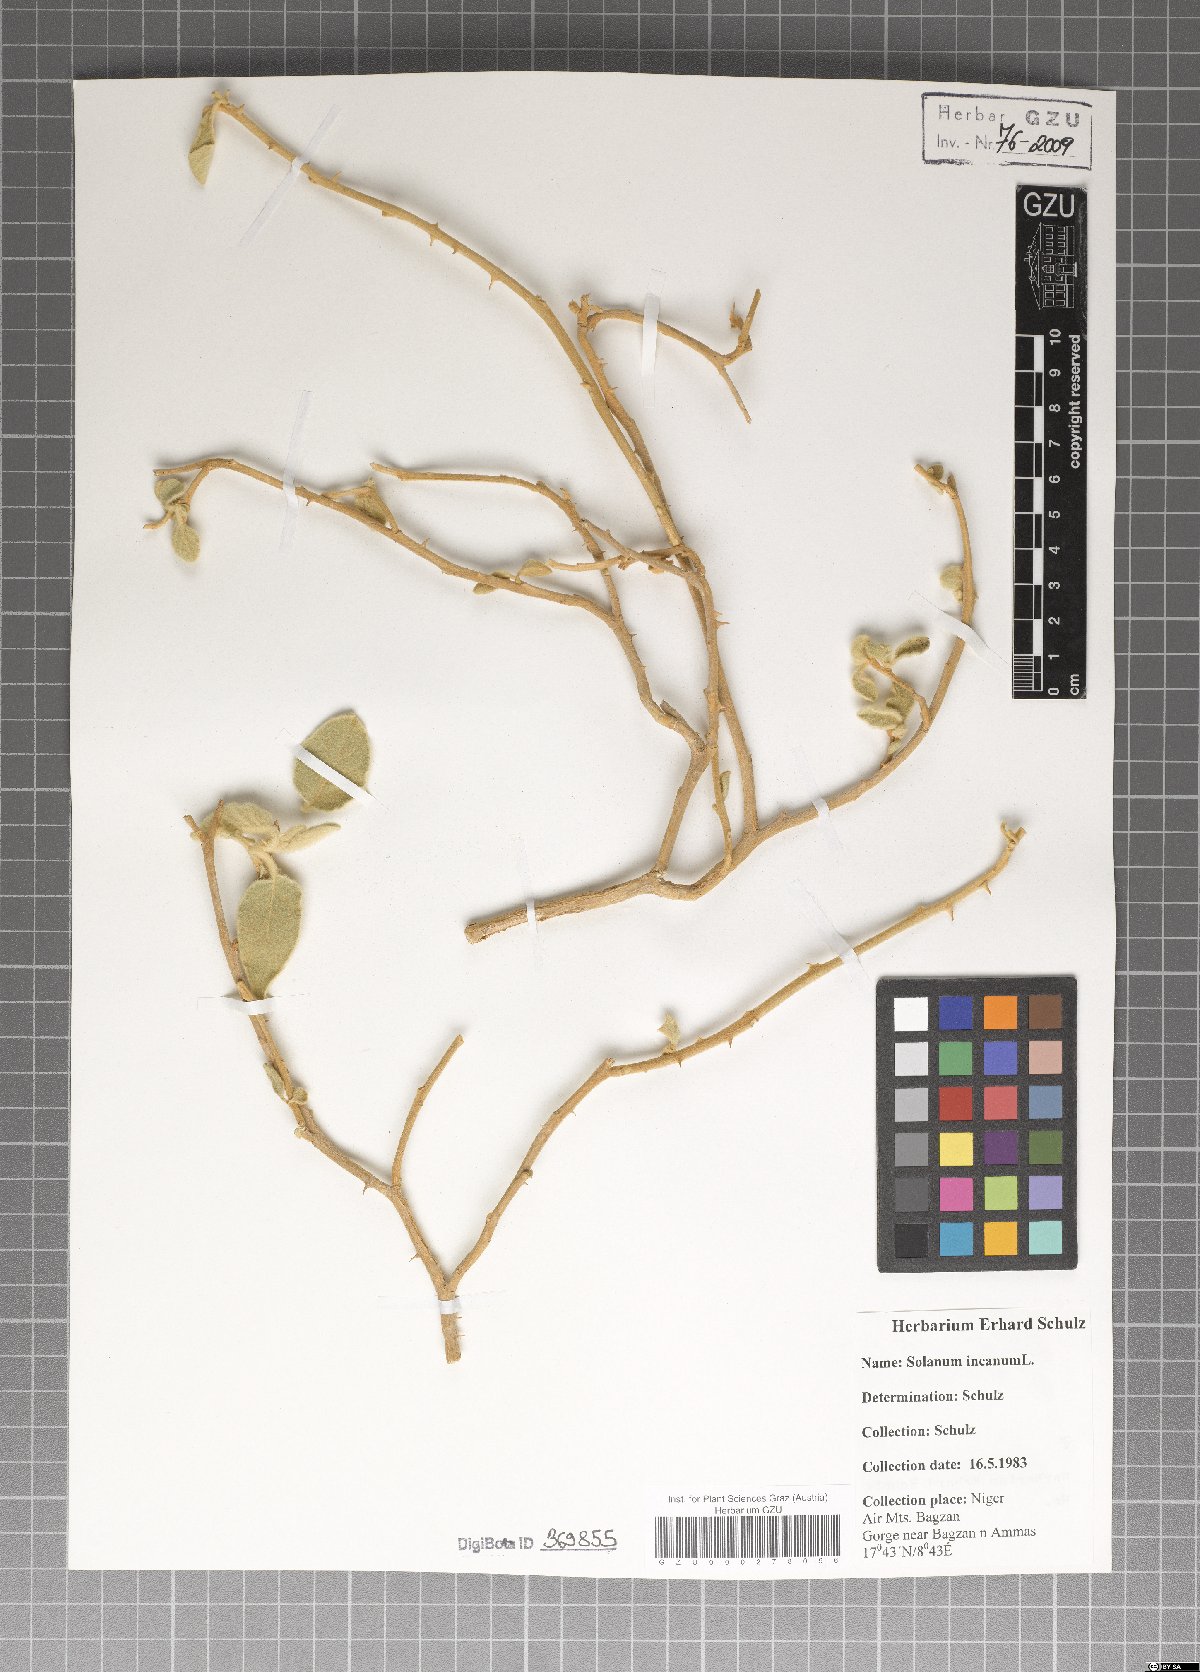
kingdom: Plantae
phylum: Tracheophyta
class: Magnoliopsida
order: Solanales
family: Solanaceae
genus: Solanum
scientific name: Solanum incanum
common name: Bitter apple
